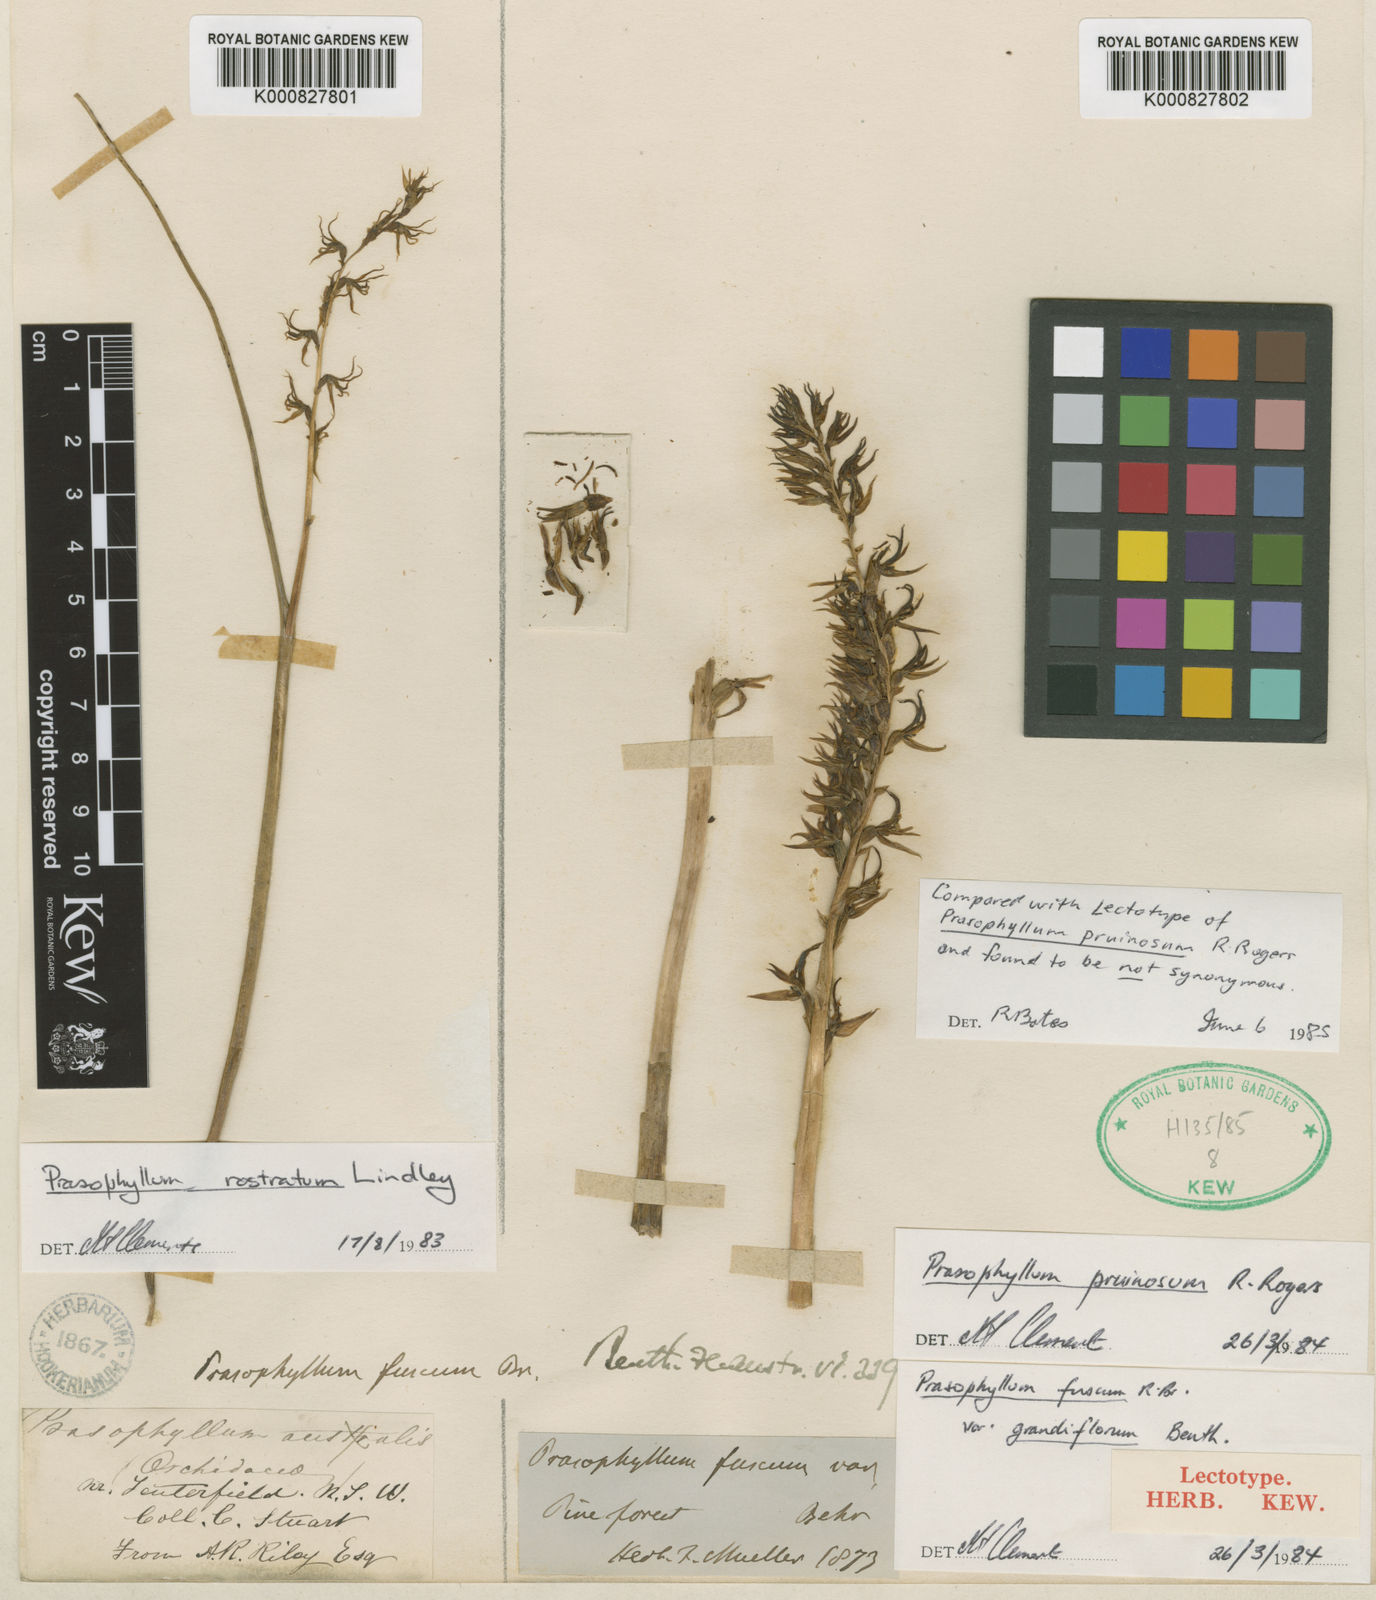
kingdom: Plantae
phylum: Tracheophyta
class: Liliopsida
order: Asparagales
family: Orchidaceae
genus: Prasophyllum
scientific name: Prasophyllum pruinosum
